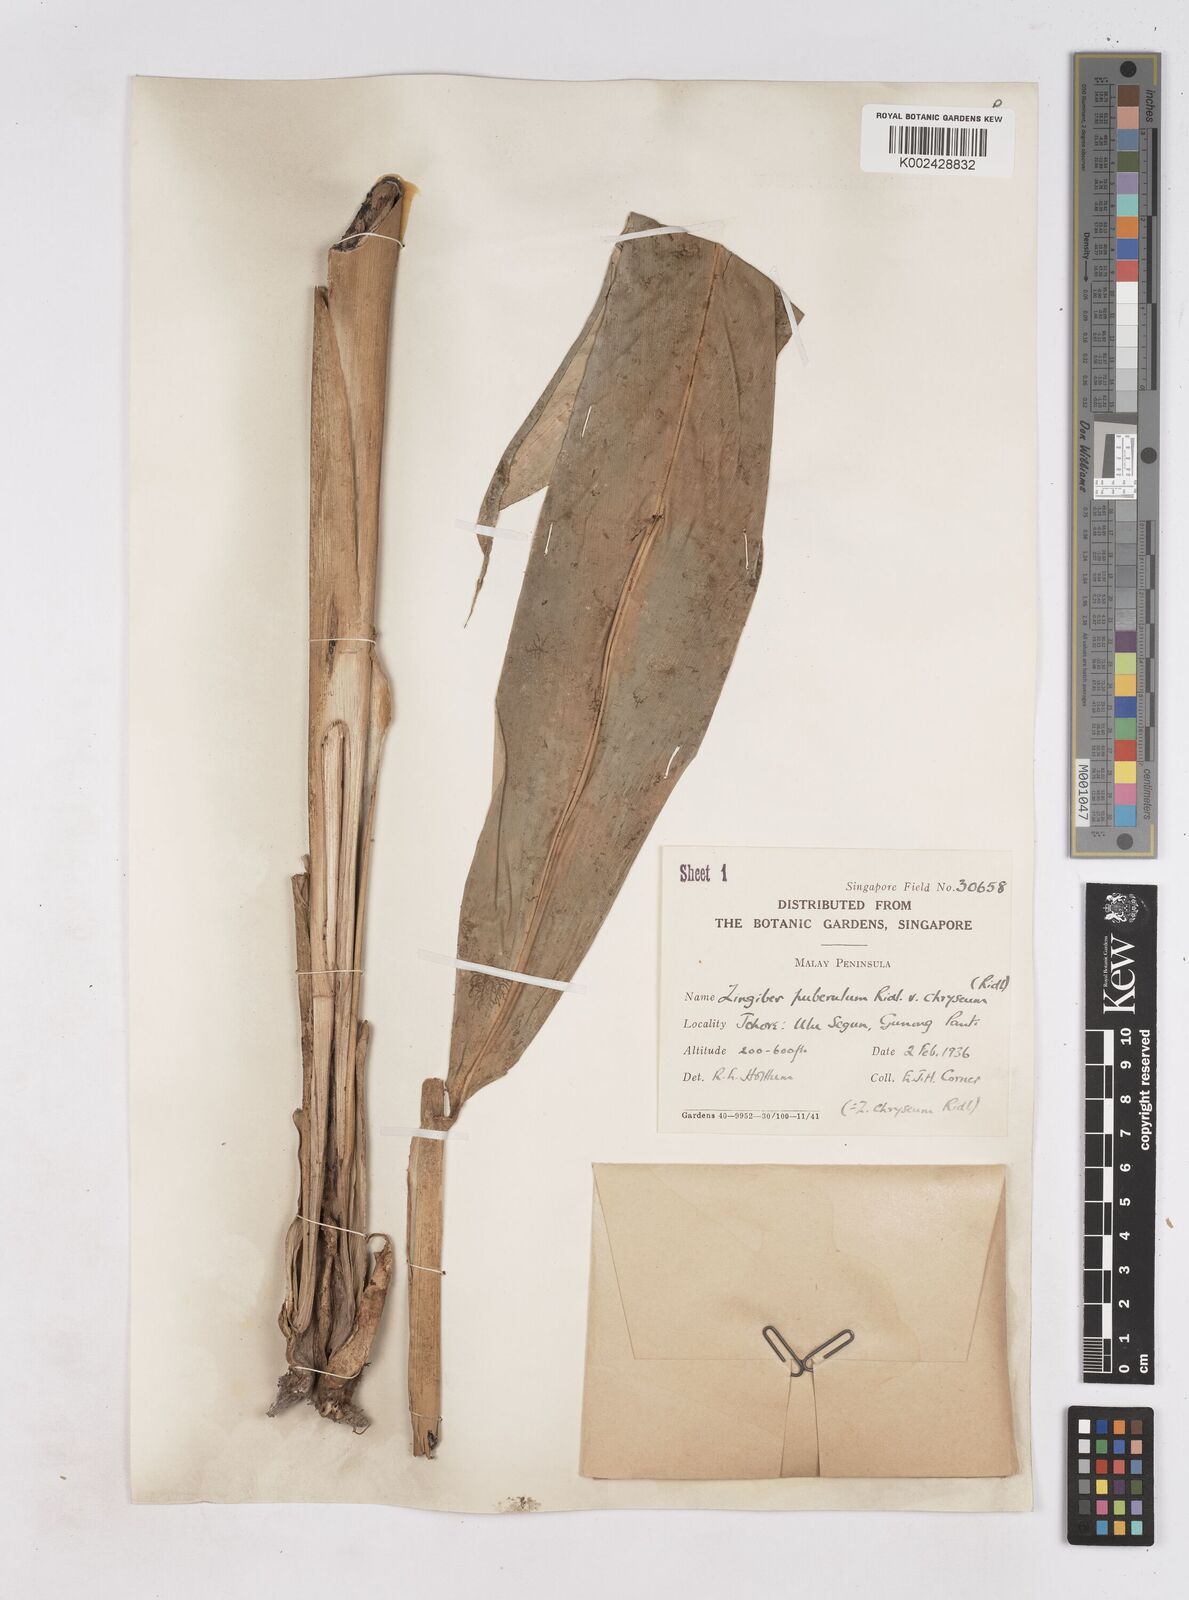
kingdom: Plantae
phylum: Tracheophyta
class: Liliopsida
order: Zingiberales
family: Zingiberaceae
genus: Zingiber
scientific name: Zingiber puberulum
